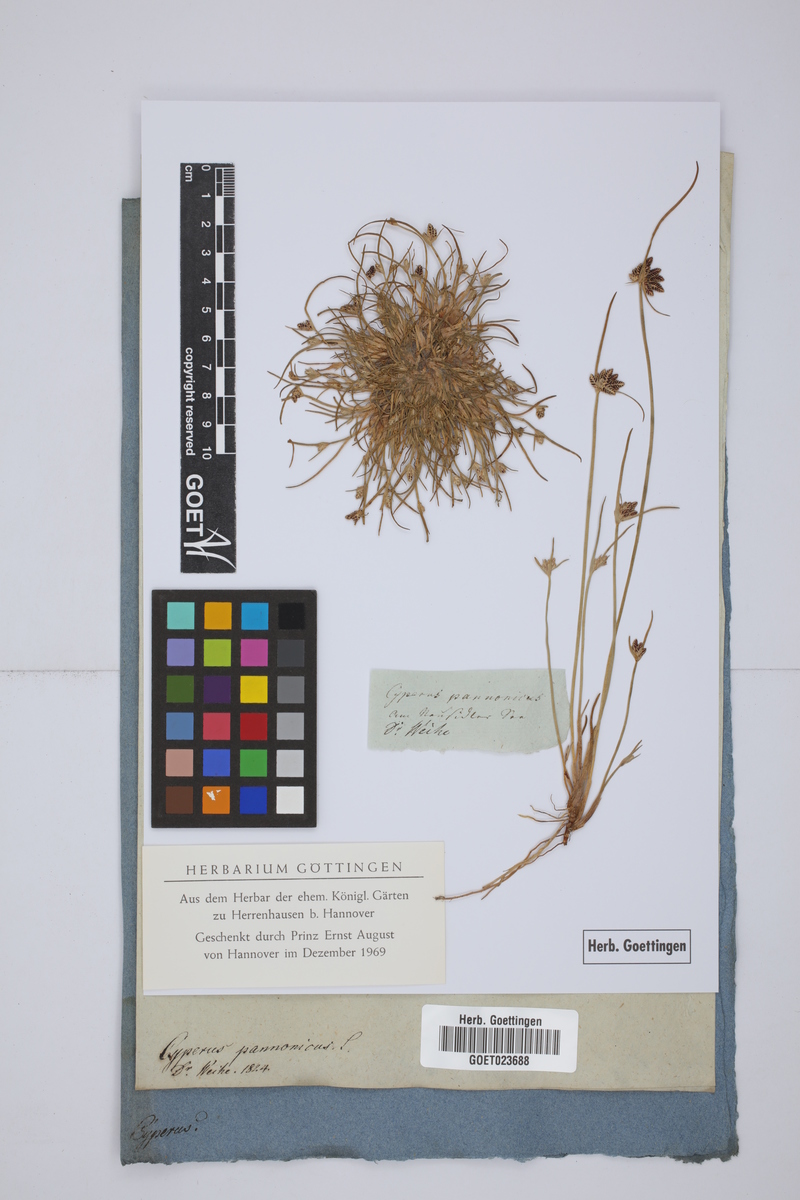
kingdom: Plantae
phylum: Tracheophyta
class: Liliopsida
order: Poales
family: Cyperaceae
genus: Cyperus
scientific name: Cyperus pannonicus
